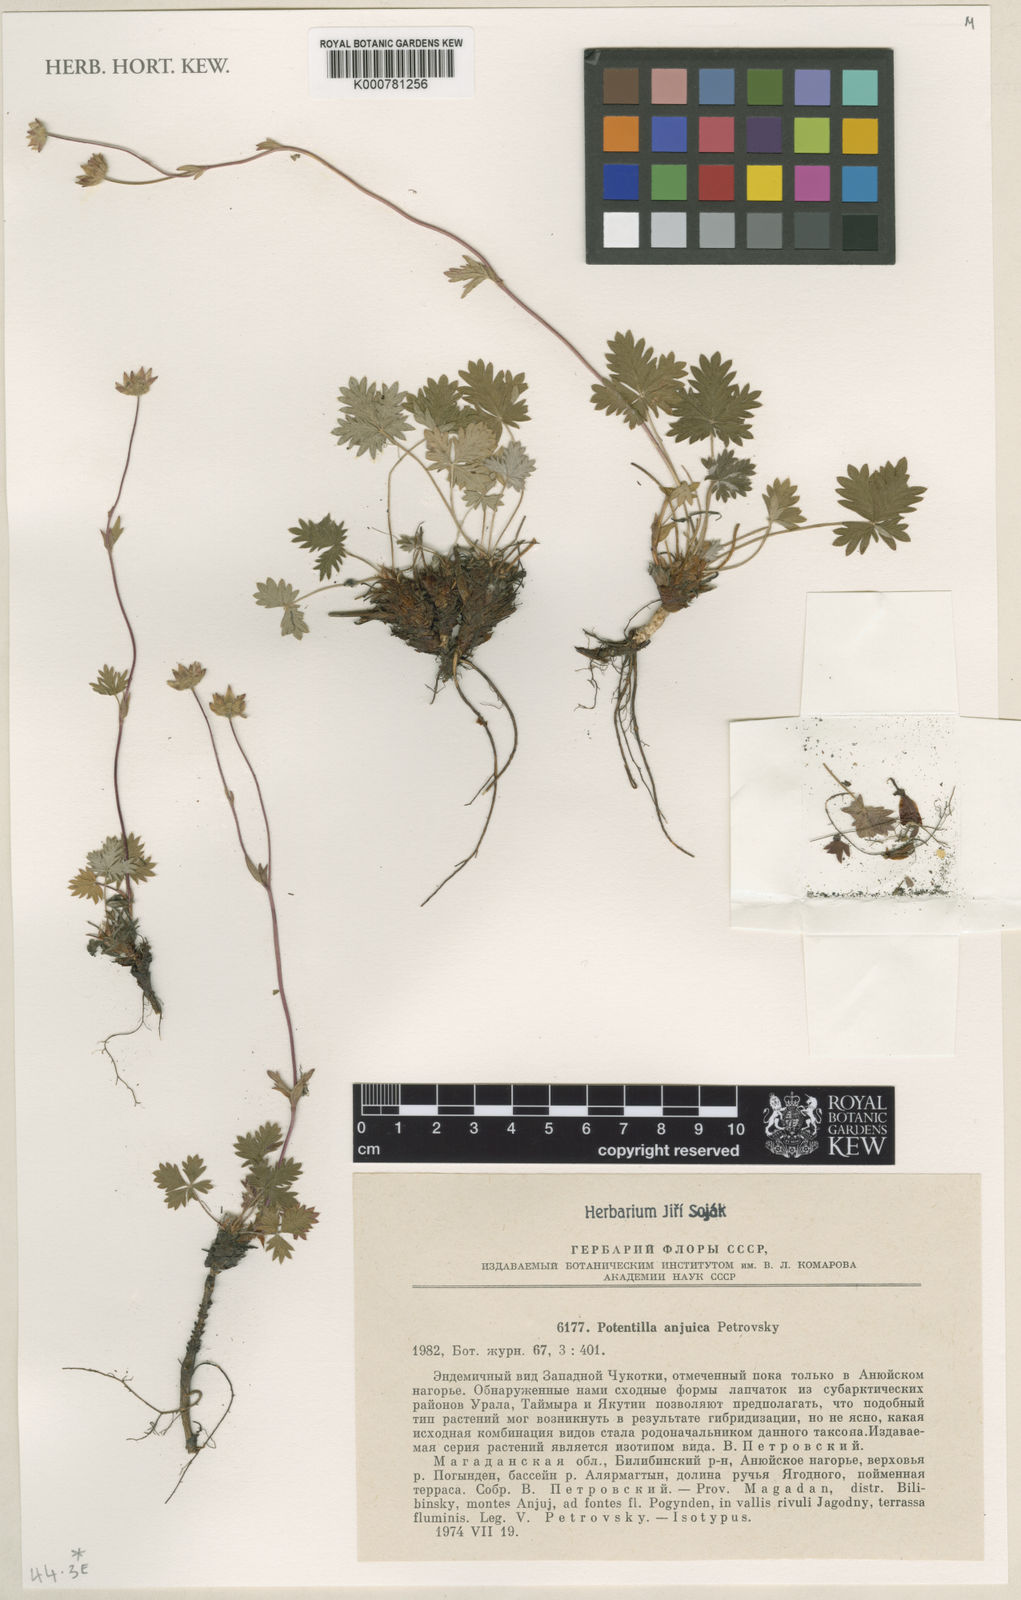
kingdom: Plantae
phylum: Tracheophyta
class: Magnoliopsida
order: Rosales
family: Rosaceae
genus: Potentilla
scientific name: Potentilla anjuica
